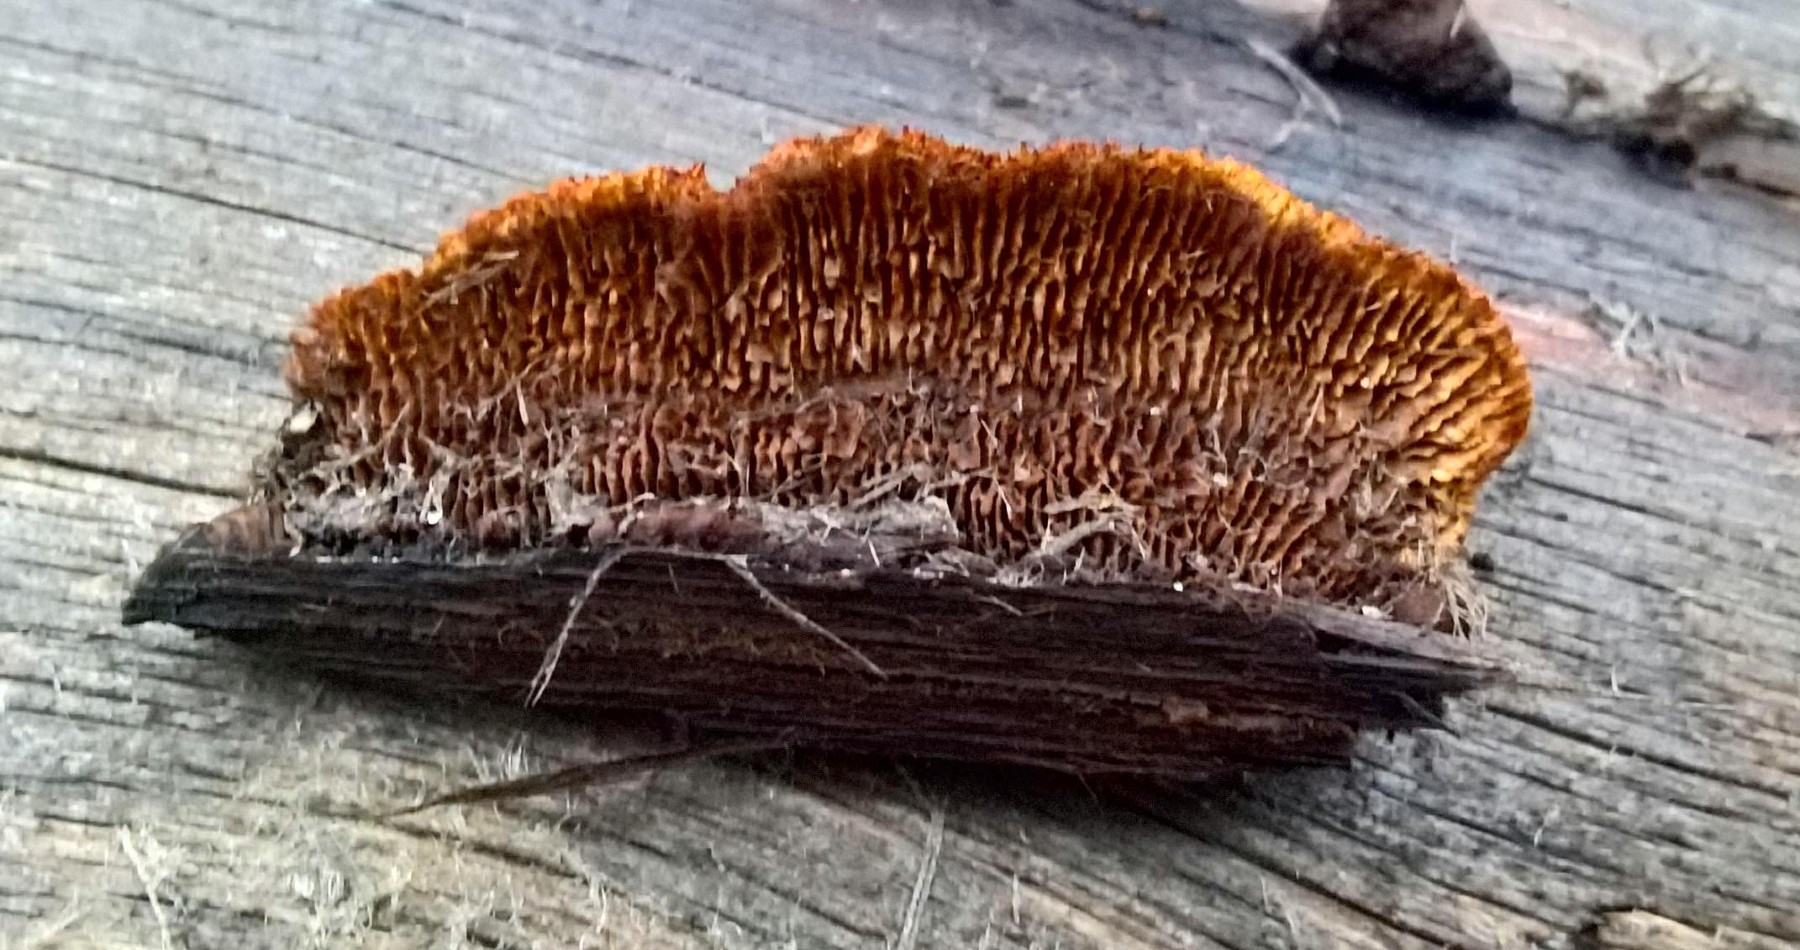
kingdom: Fungi
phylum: Basidiomycota
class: Agaricomycetes
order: Gloeophyllales
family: Gloeophyllaceae
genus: Gloeophyllum
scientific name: Gloeophyllum sepiarium
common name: fyrre-korkhat
